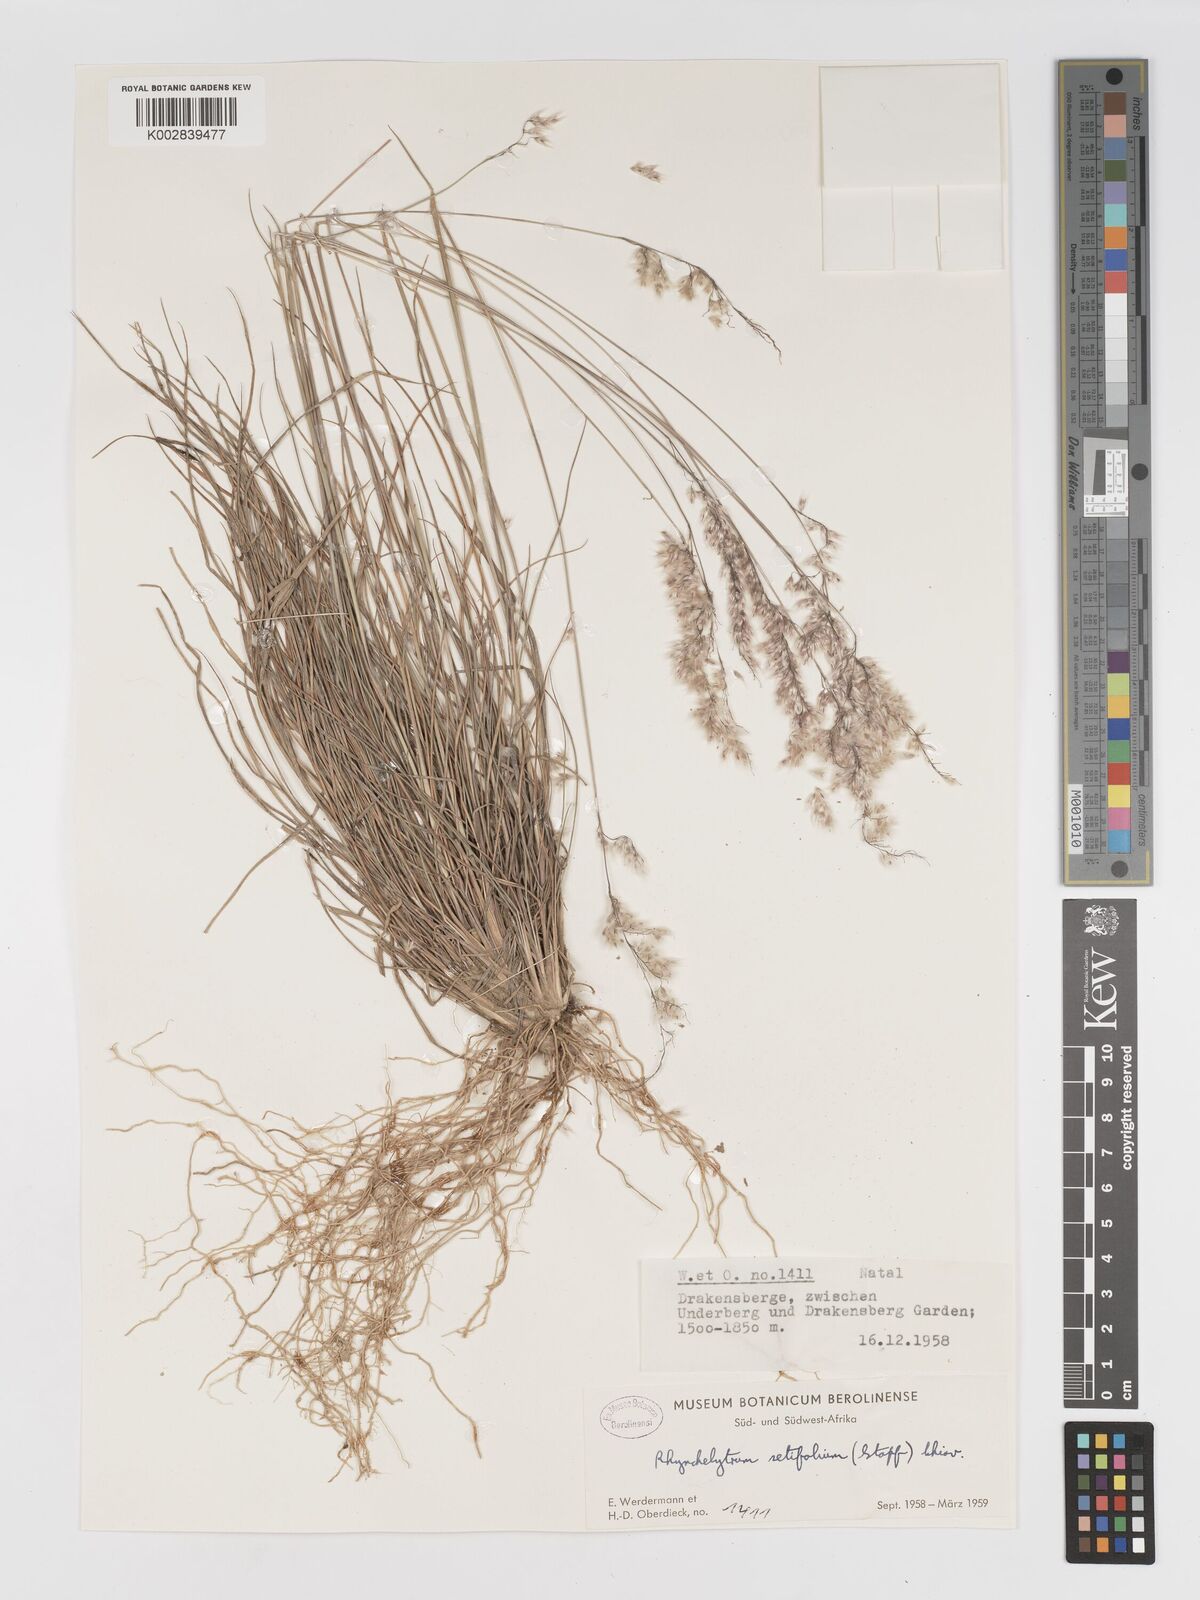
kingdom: Plantae
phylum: Tracheophyta
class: Liliopsida
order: Poales
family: Poaceae
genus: Melinis
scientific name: Melinis nerviglumis
